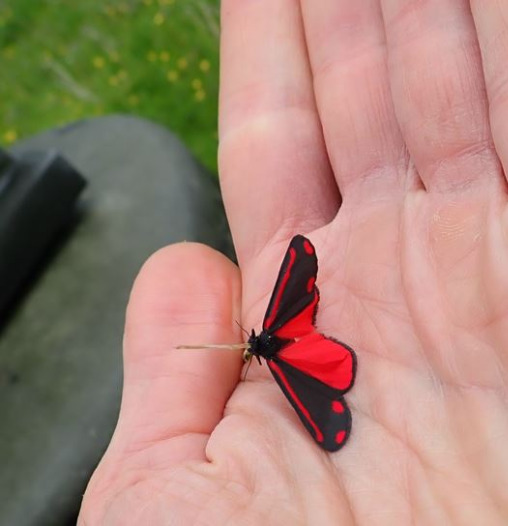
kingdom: Animalia
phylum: Arthropoda
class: Insecta
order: Lepidoptera
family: Erebidae
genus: Tyria
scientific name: Tyria jacobaeae
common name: Blodplet
